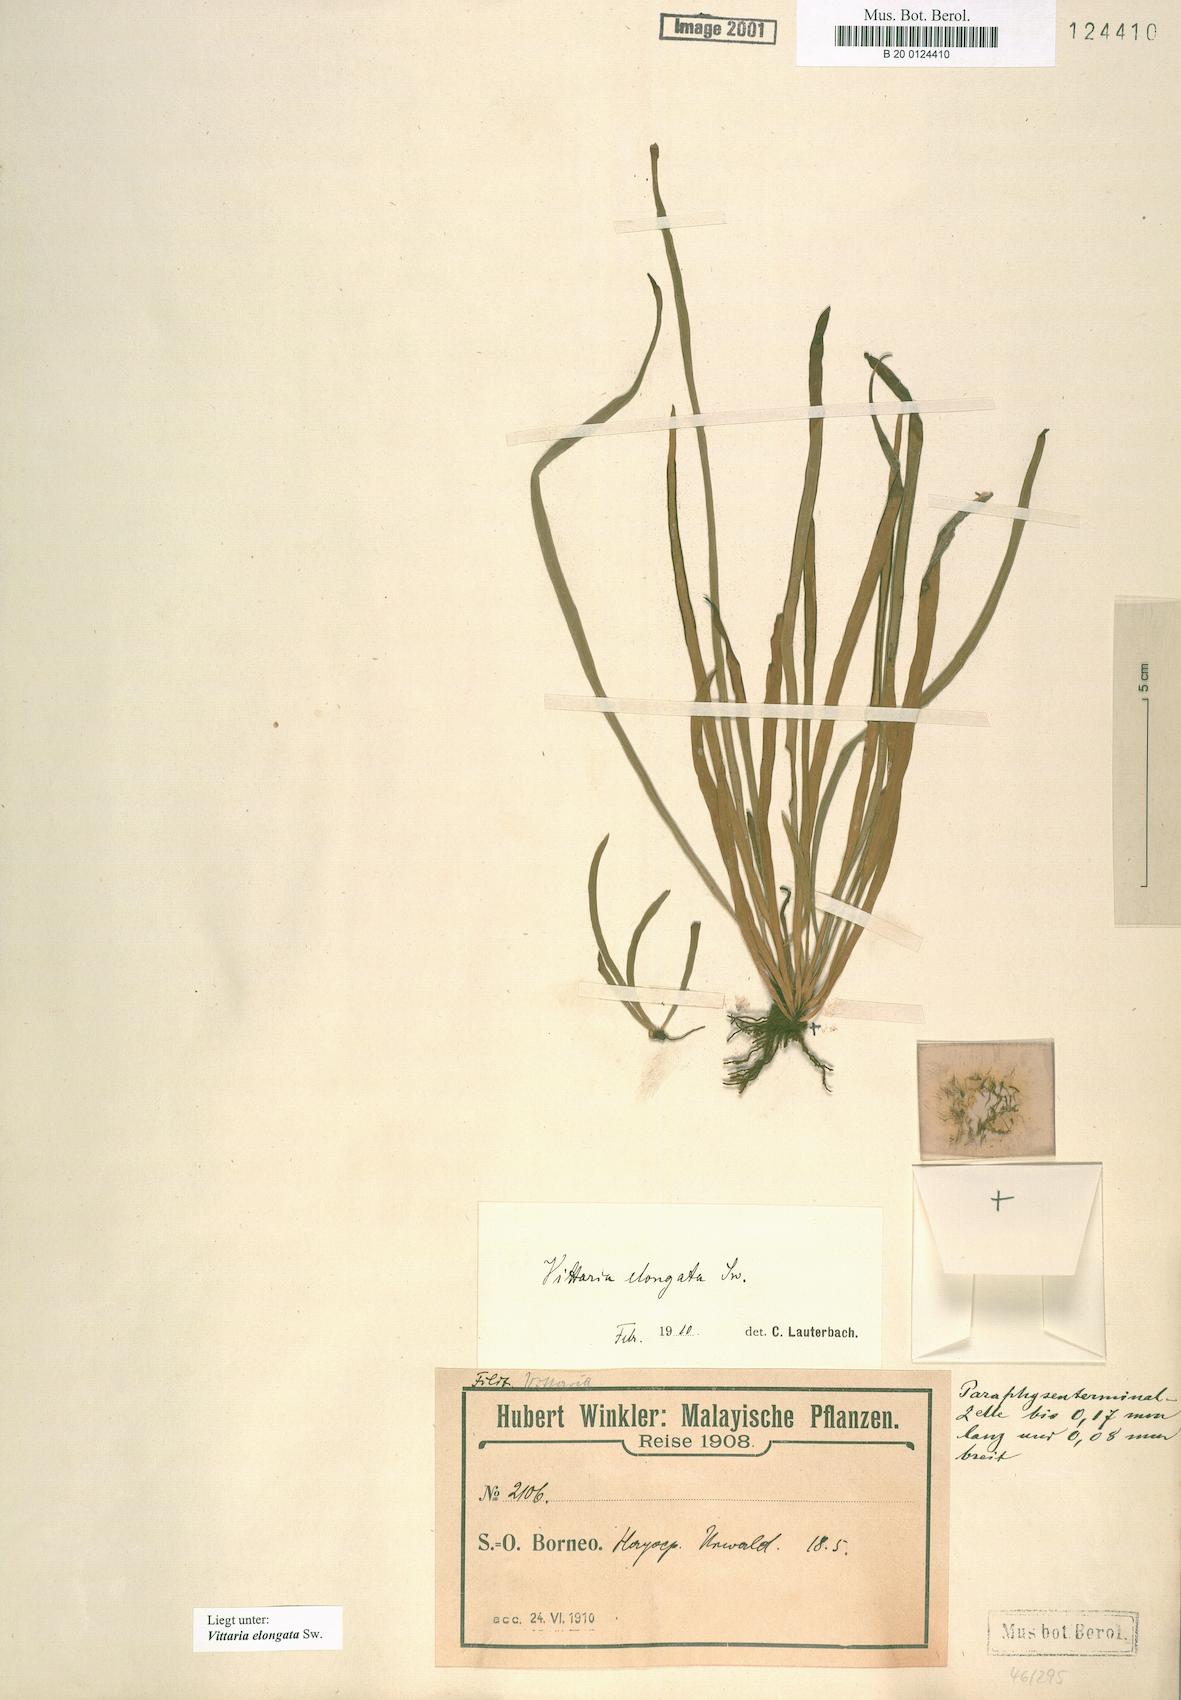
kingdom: Plantae
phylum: Tracheophyta
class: Polypodiopsida
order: Polypodiales
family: Pteridaceae
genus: Haplopteris
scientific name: Haplopteris elongata
